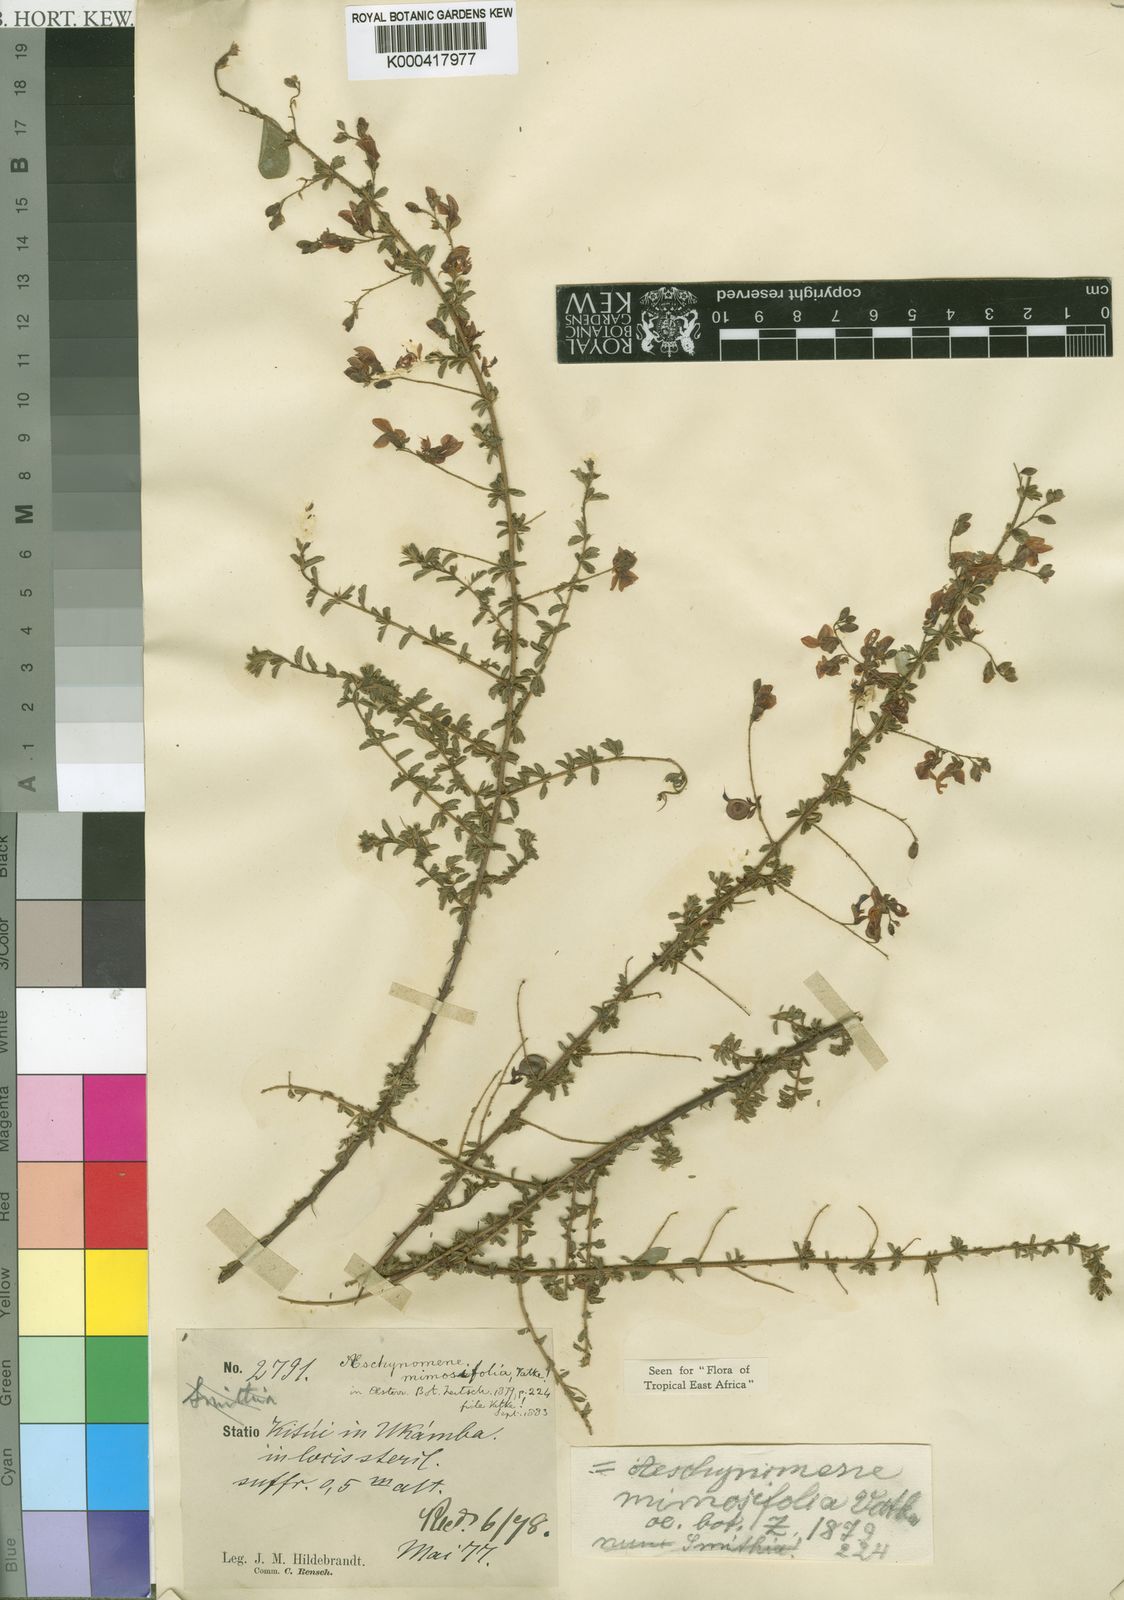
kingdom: Plantae
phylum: Tracheophyta
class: Magnoliopsida
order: Fabales
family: Fabaceae
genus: Aeschynomene
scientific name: Aeschynomene mimosifolia
